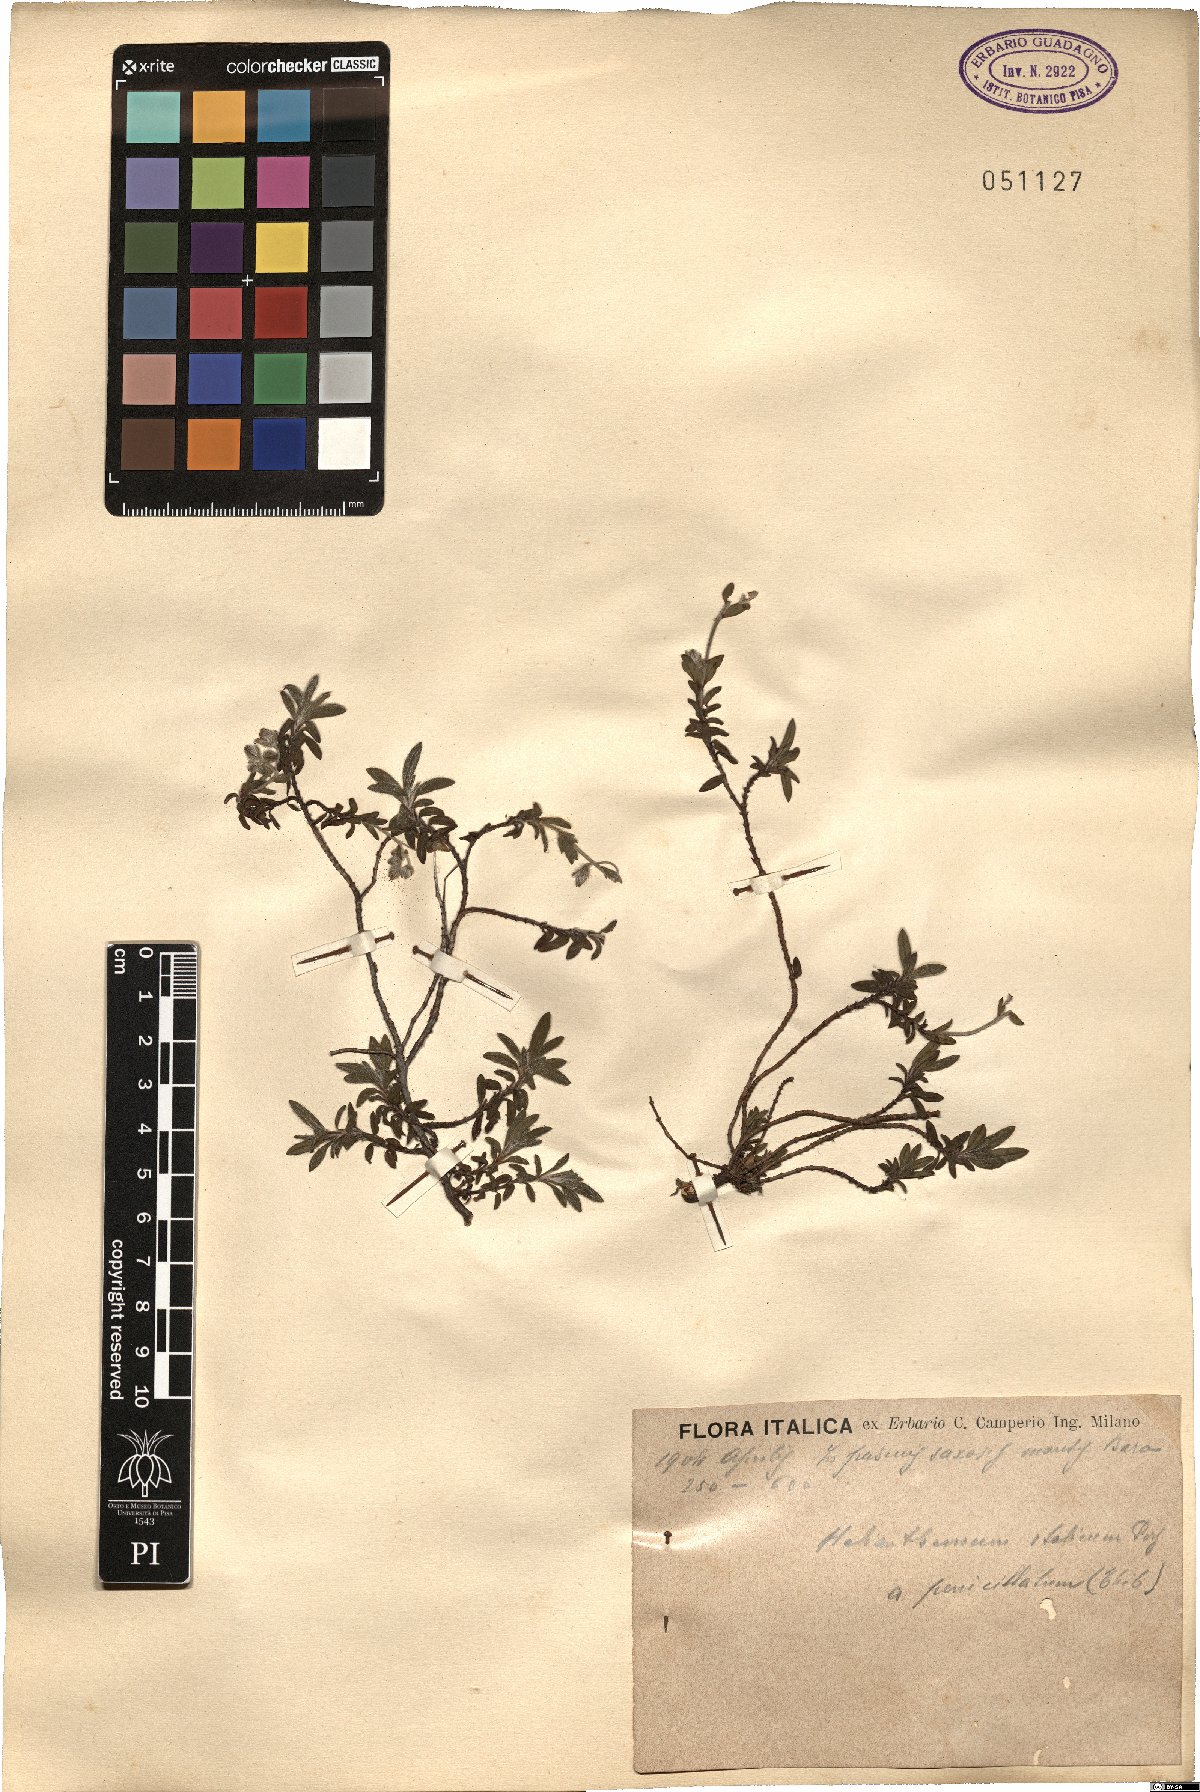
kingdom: Plantae
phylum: Tracheophyta
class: Magnoliopsida
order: Malvales
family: Cistaceae
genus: Helianthemum
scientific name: Helianthemum italicum
